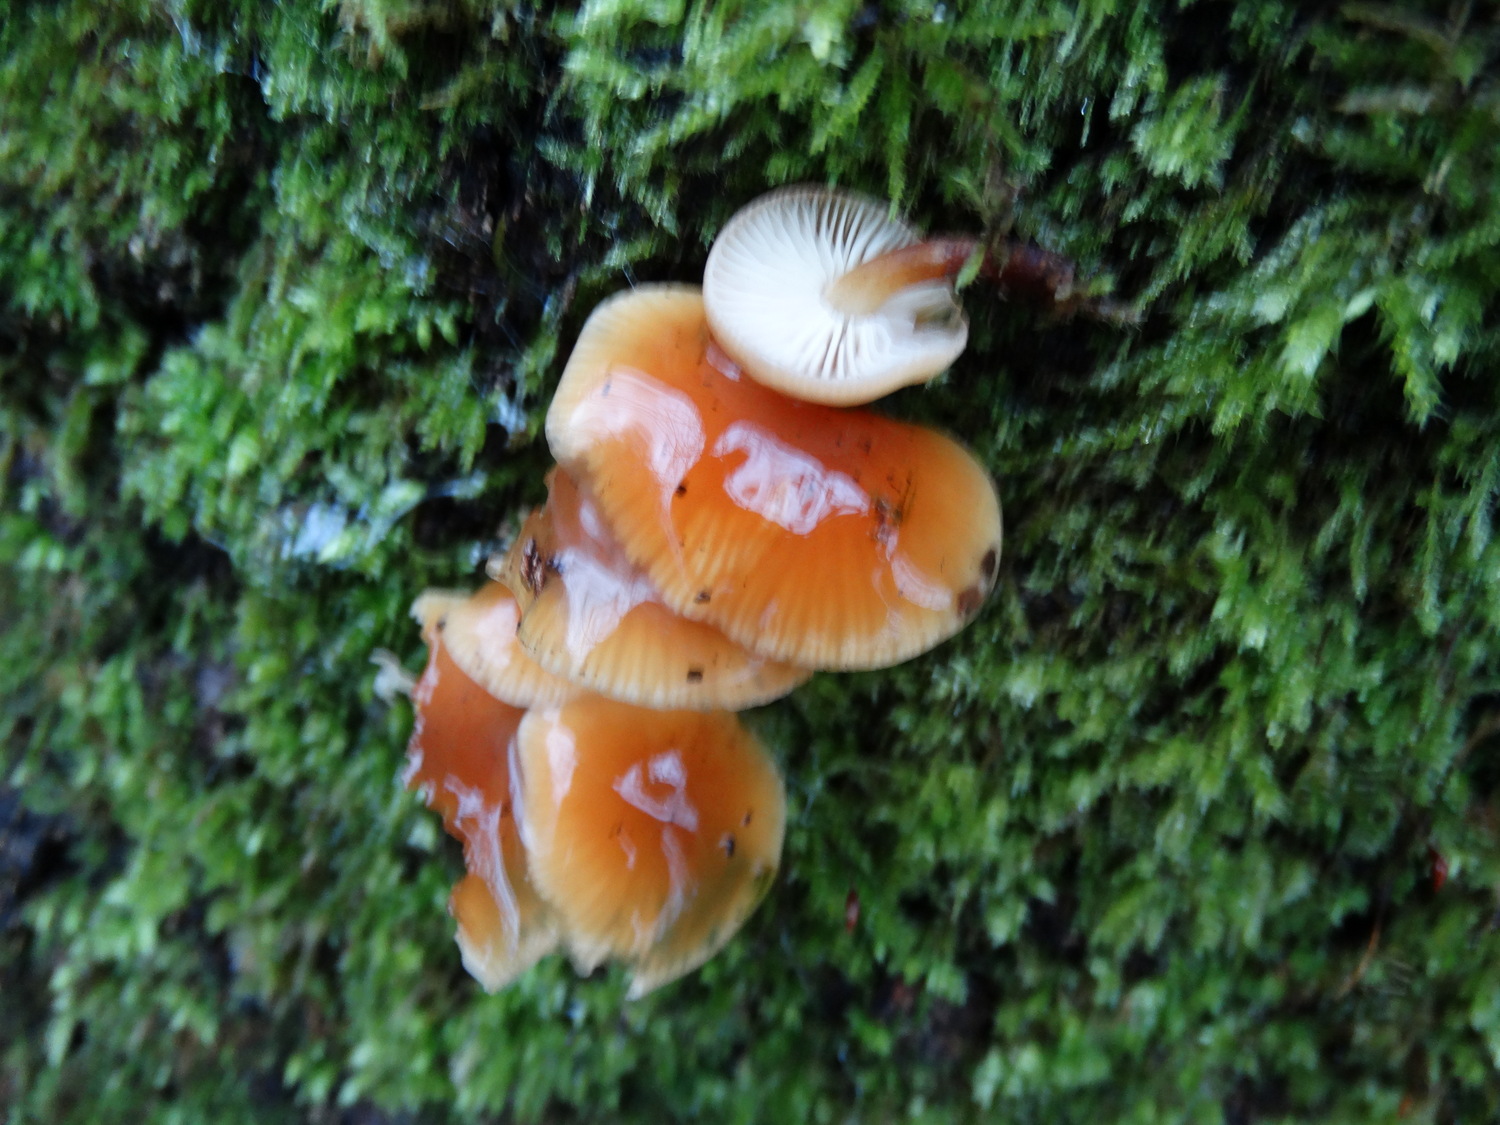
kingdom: Fungi
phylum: Basidiomycota
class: Agaricomycetes
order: Agaricales
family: Physalacriaceae
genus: Flammulina
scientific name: Flammulina velutipes
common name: gul fløjlsfod
